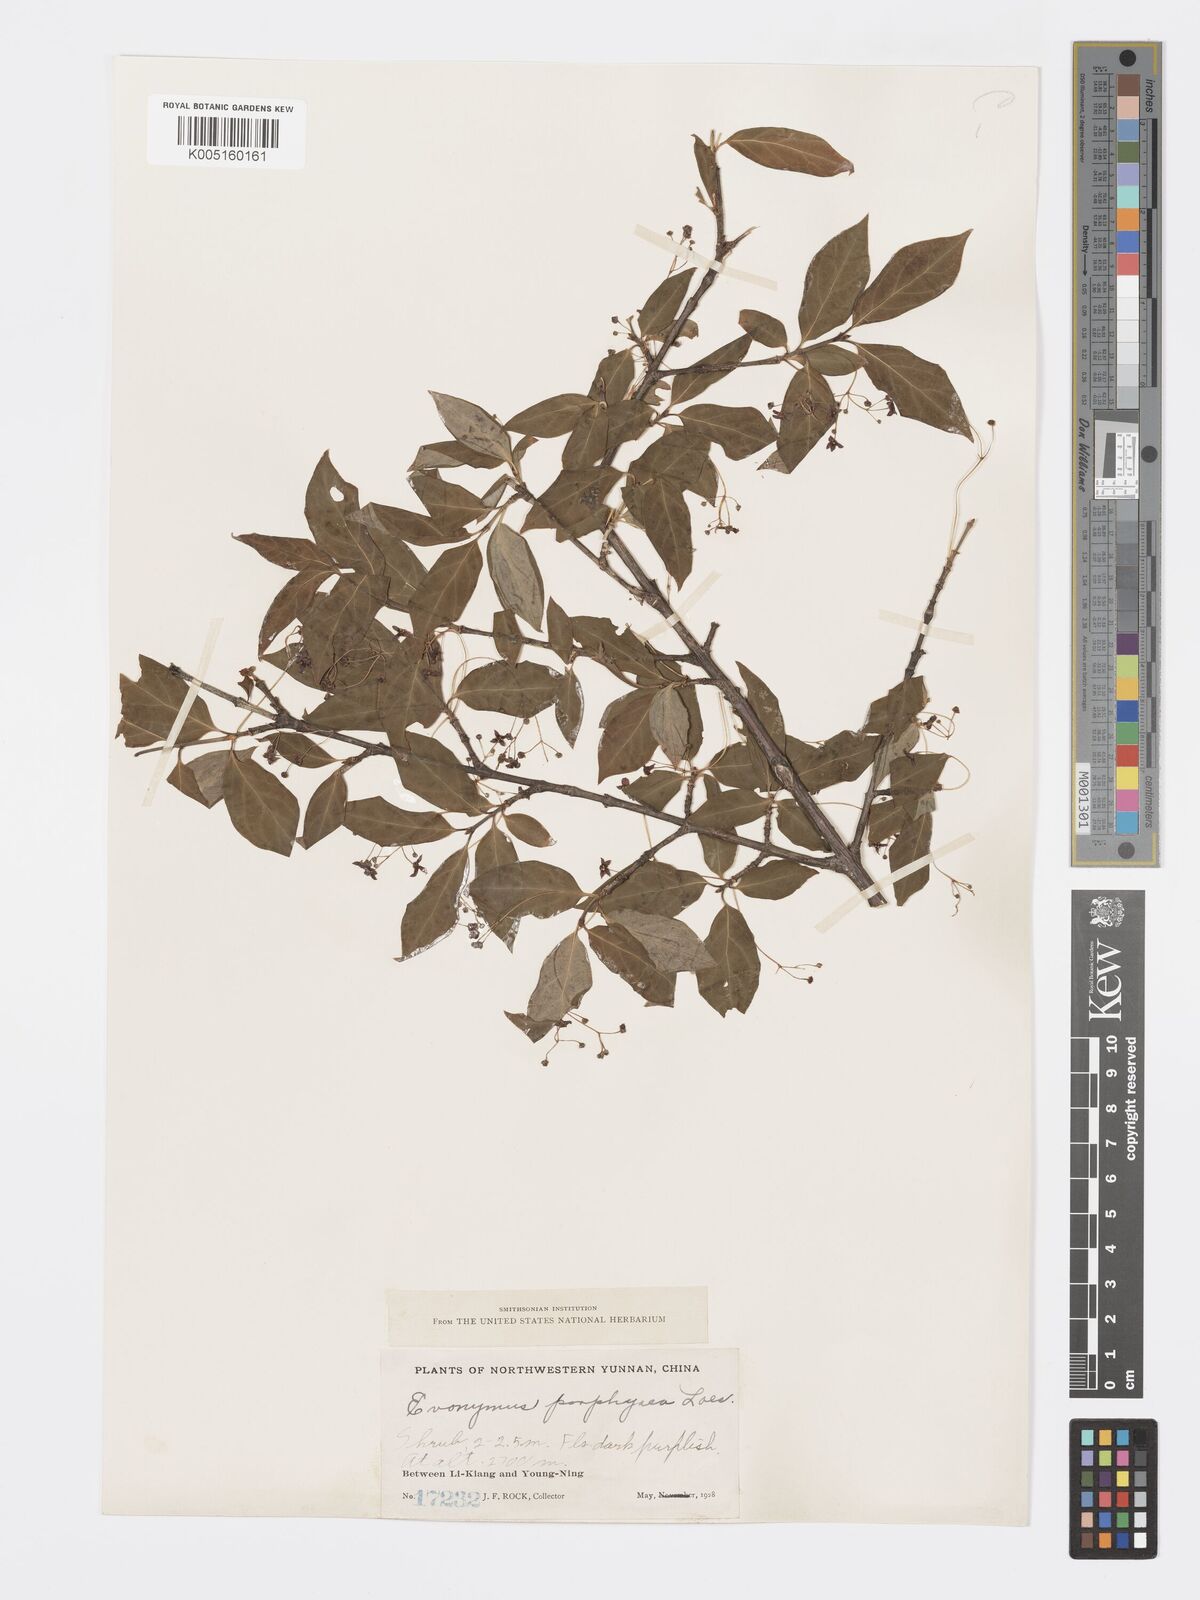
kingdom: Plantae
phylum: Tracheophyta
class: Magnoliopsida
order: Celastrales
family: Celastraceae
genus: Euonymus
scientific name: Euonymus frigidus
